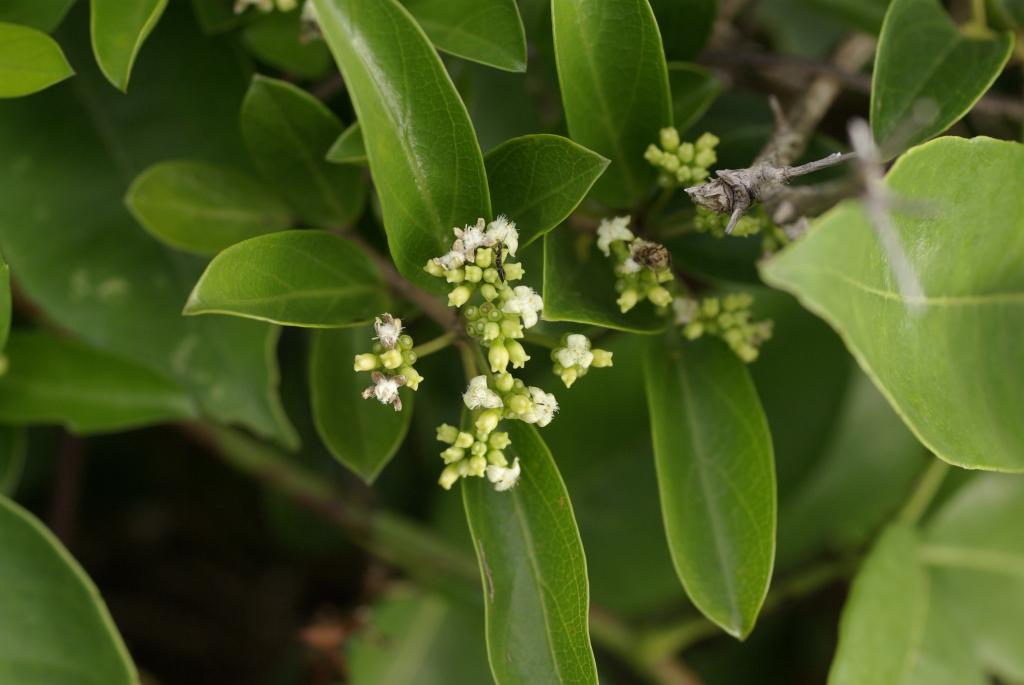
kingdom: Plantae
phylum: Tracheophyta
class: Magnoliopsida
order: Gentianales
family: Rubiaceae
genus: Gynochthodes
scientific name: Gynochthodes parvifolia
